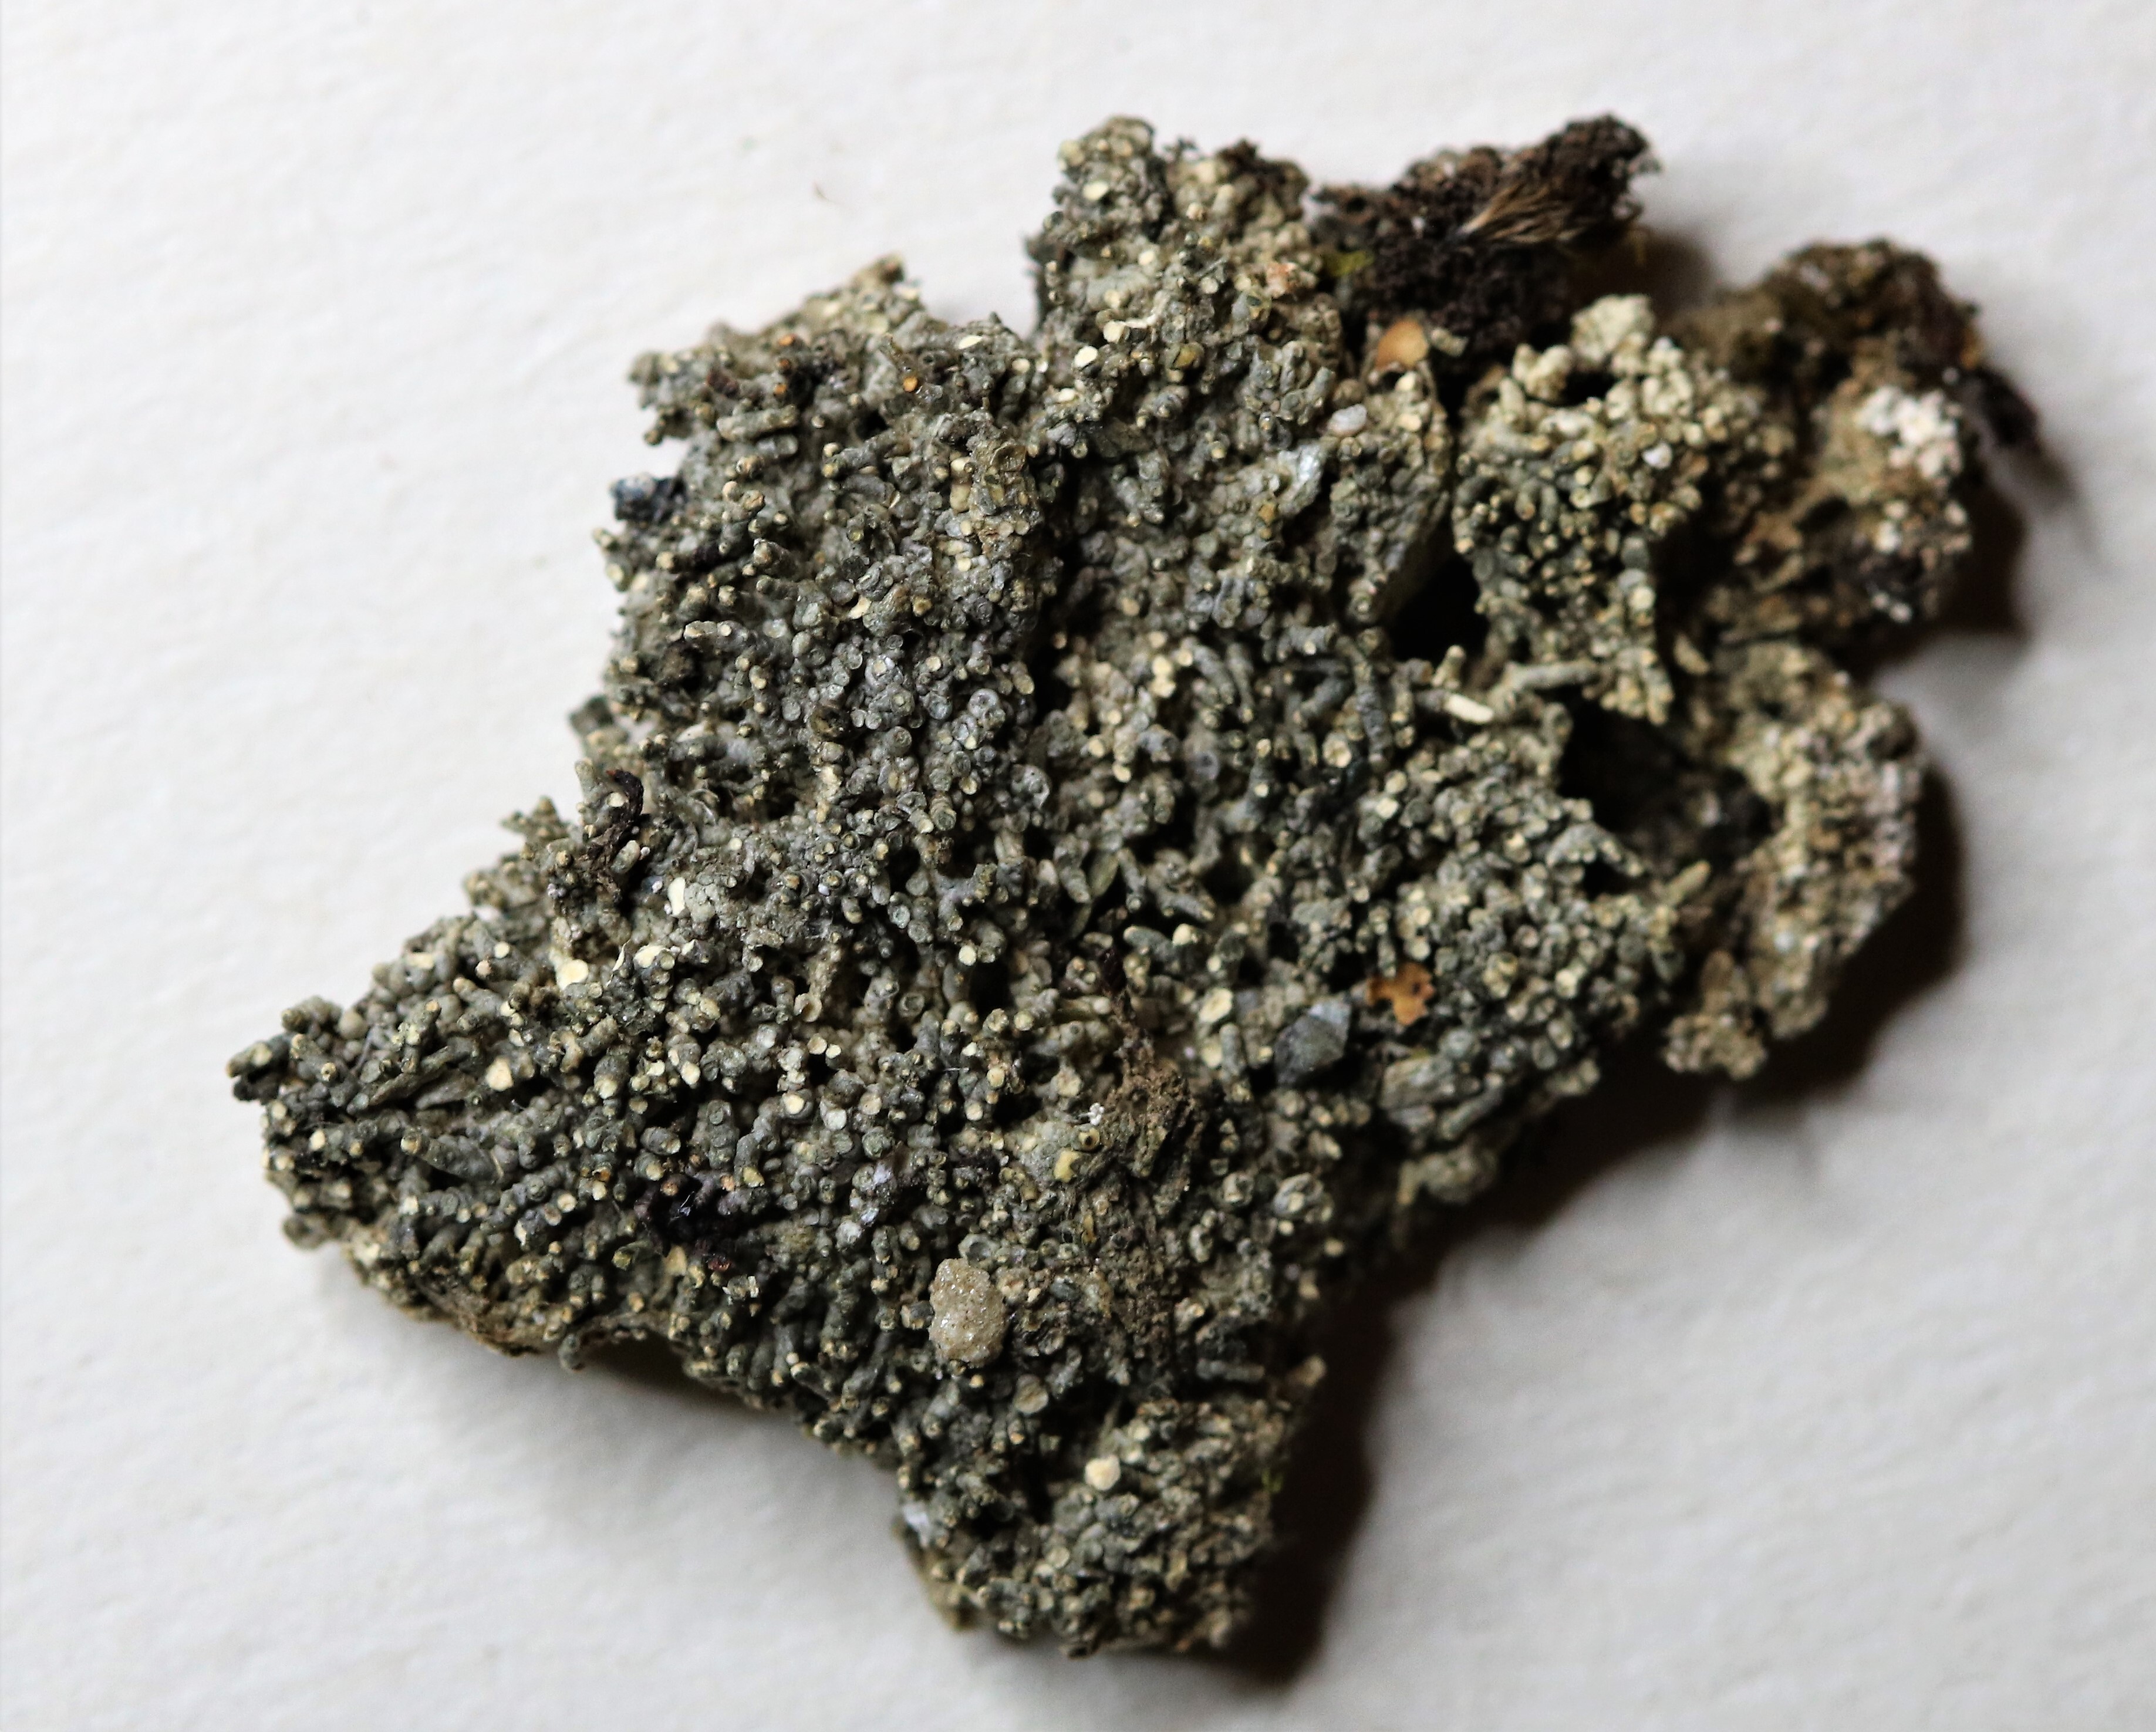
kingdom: Fungi
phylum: Ascomycota
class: Lecanoromycetes
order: Pertusariales
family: Pertusariaceae
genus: Pertusaria
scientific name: Pertusaria oculata
